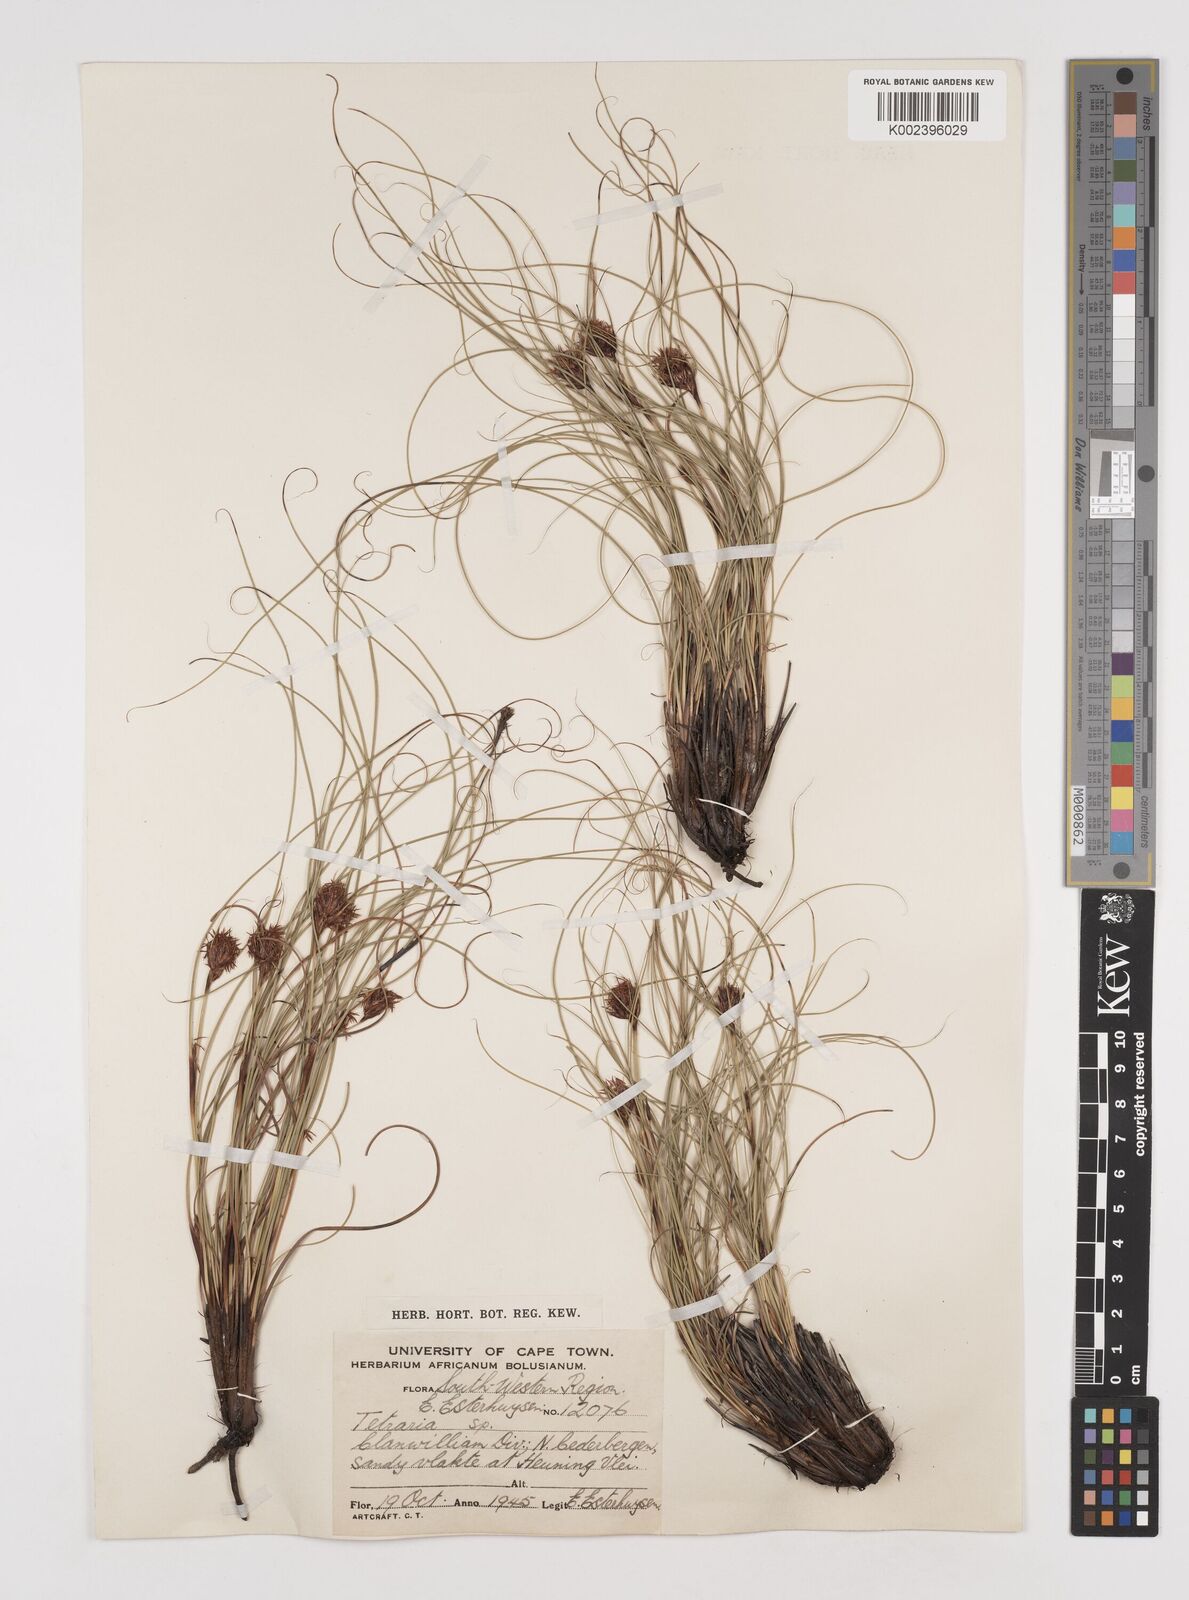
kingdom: Plantae
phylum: Tracheophyta
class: Liliopsida
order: Poales
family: Cyperaceae
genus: Tetraria
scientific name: Tetraria crinifolia
